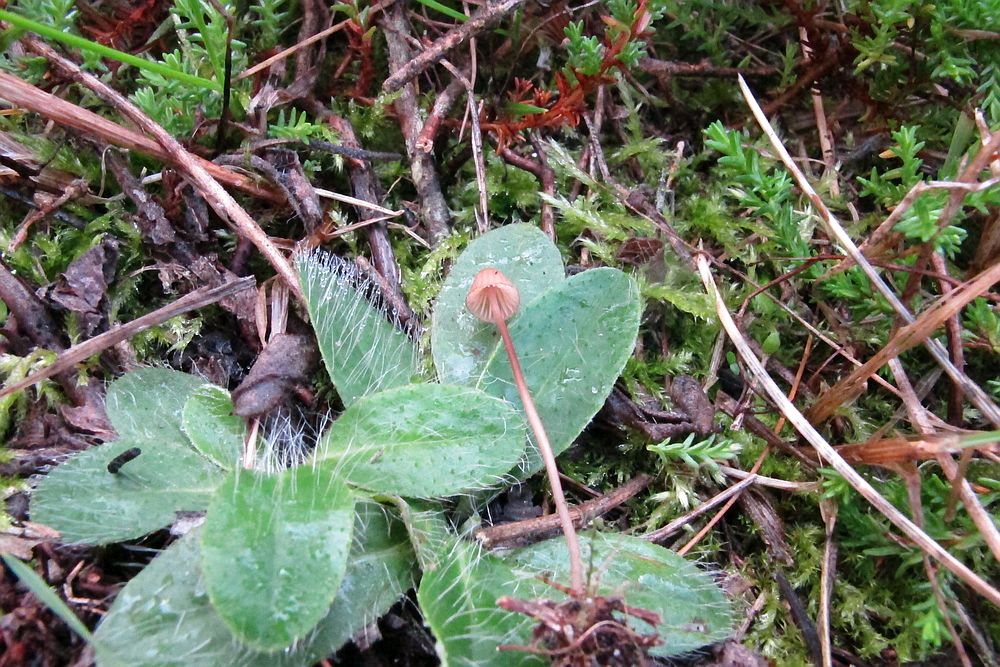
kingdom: Fungi
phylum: Basidiomycota
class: Agaricomycetes
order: Agaricales
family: Mycenaceae
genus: Mycena
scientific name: Mycena sanguinolenta
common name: rødmælket huesvamp
